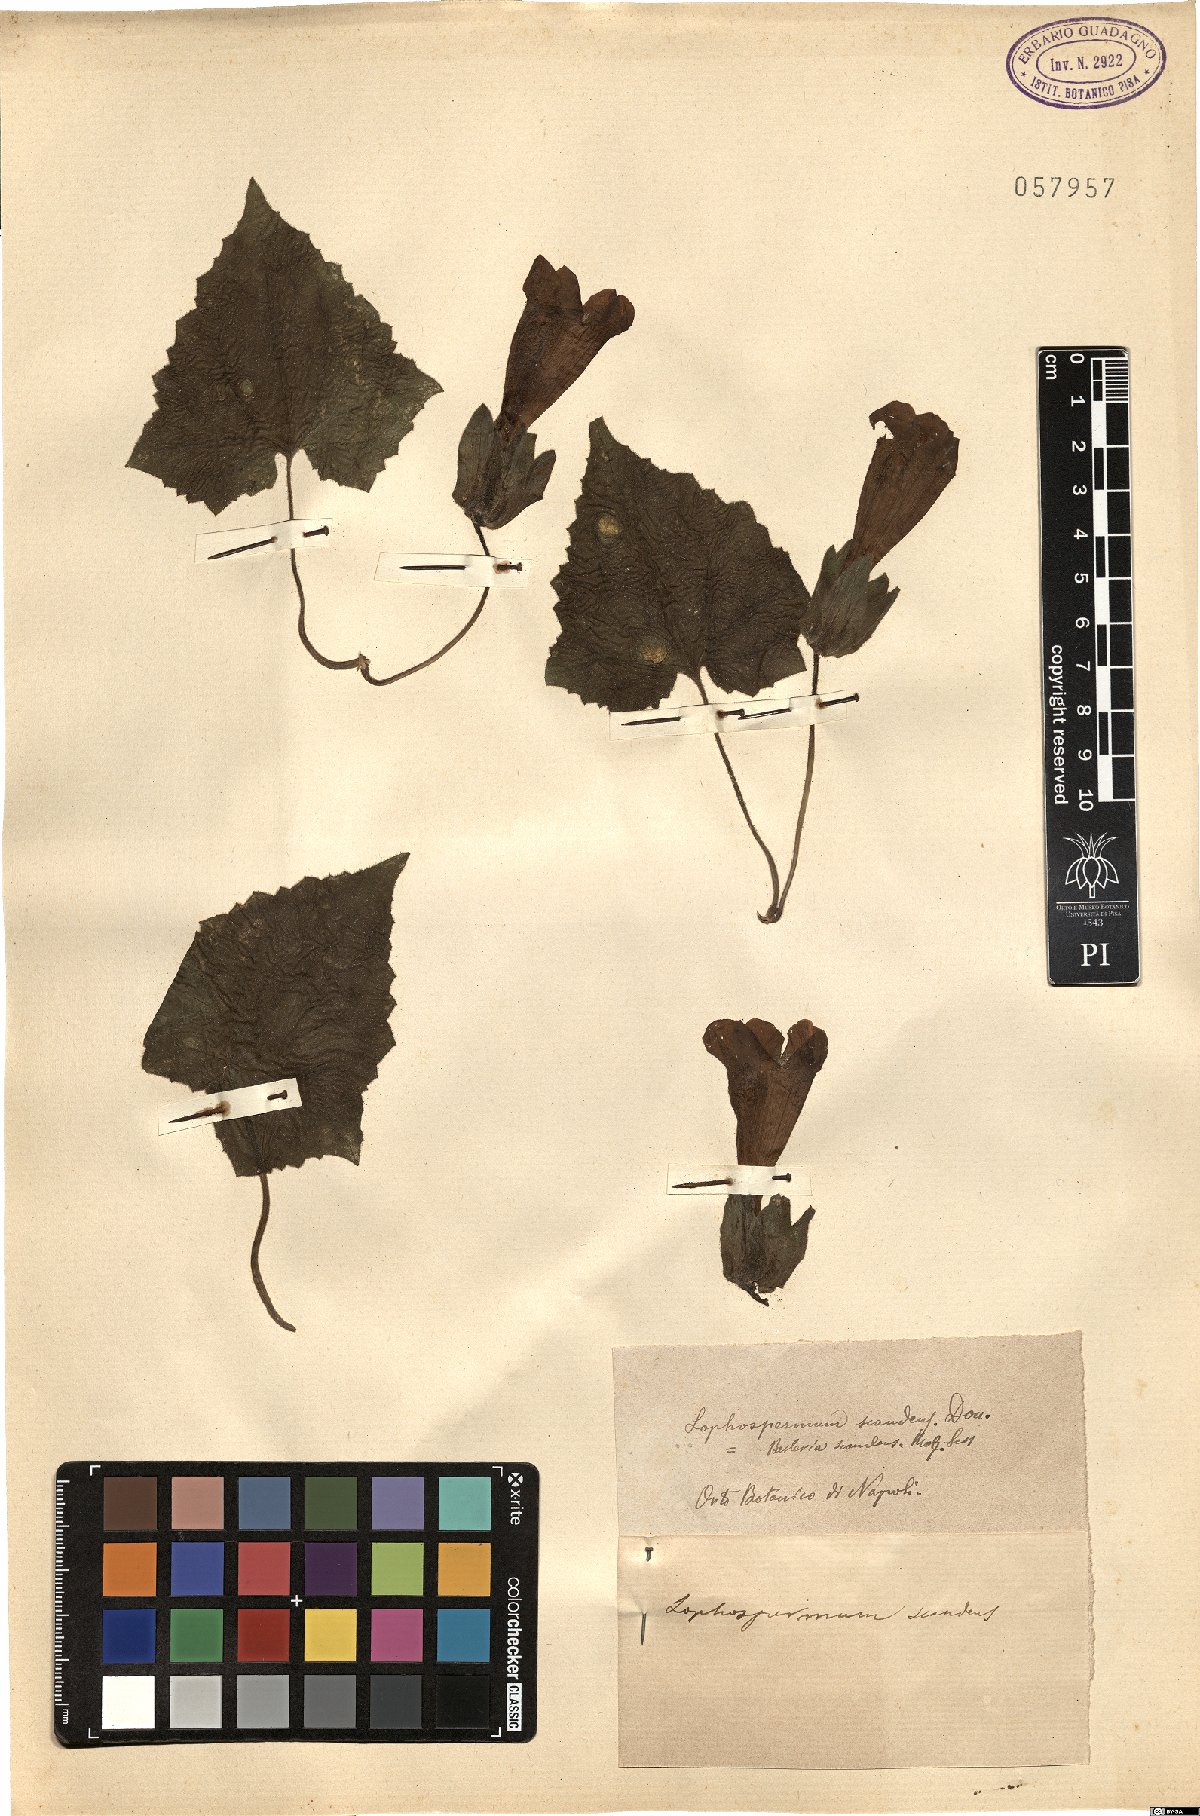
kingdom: Plantae
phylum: Tracheophyta
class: Magnoliopsida
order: Lamiales
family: Plantaginaceae
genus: Lophospermum
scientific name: Lophospermum scandens
